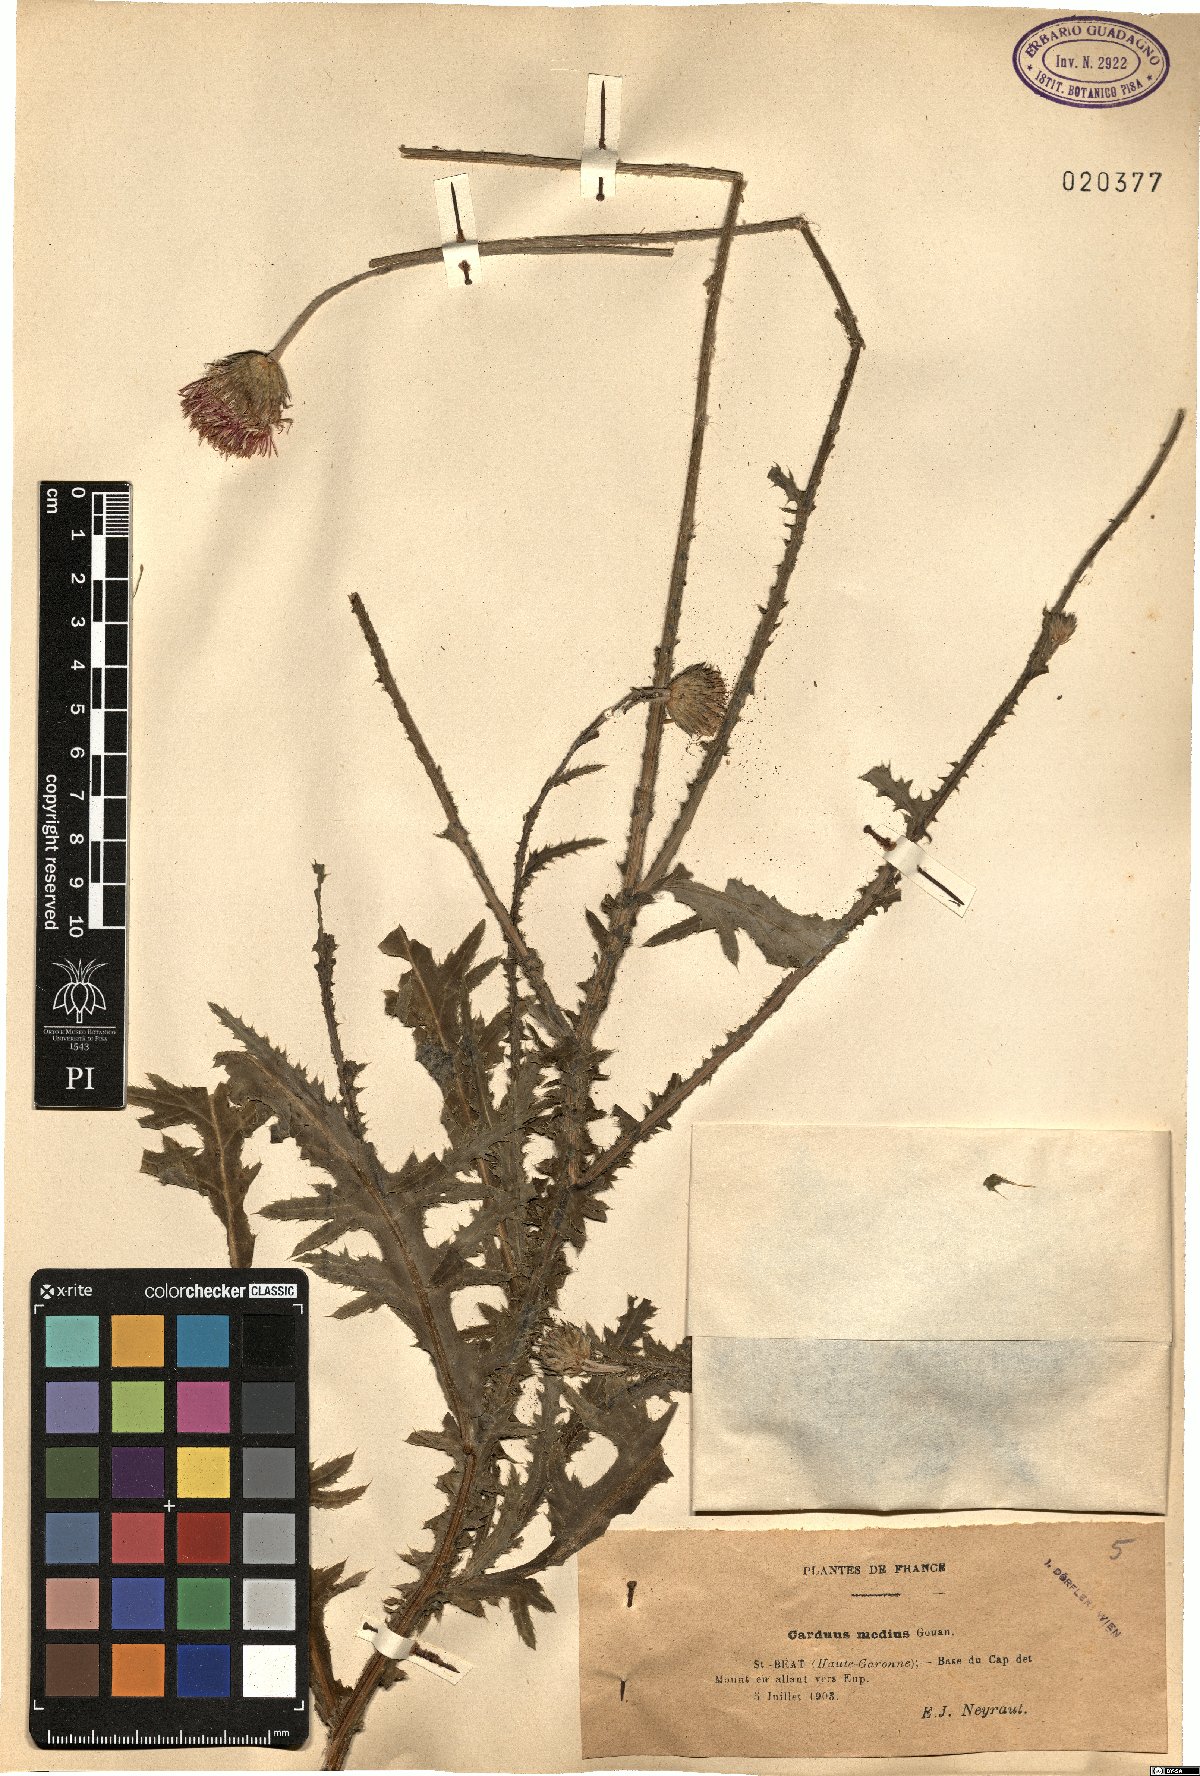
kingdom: Plantae
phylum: Tracheophyta
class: Magnoliopsida
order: Asterales
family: Asteraceae
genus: Carduus
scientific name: Carduus defloratus
